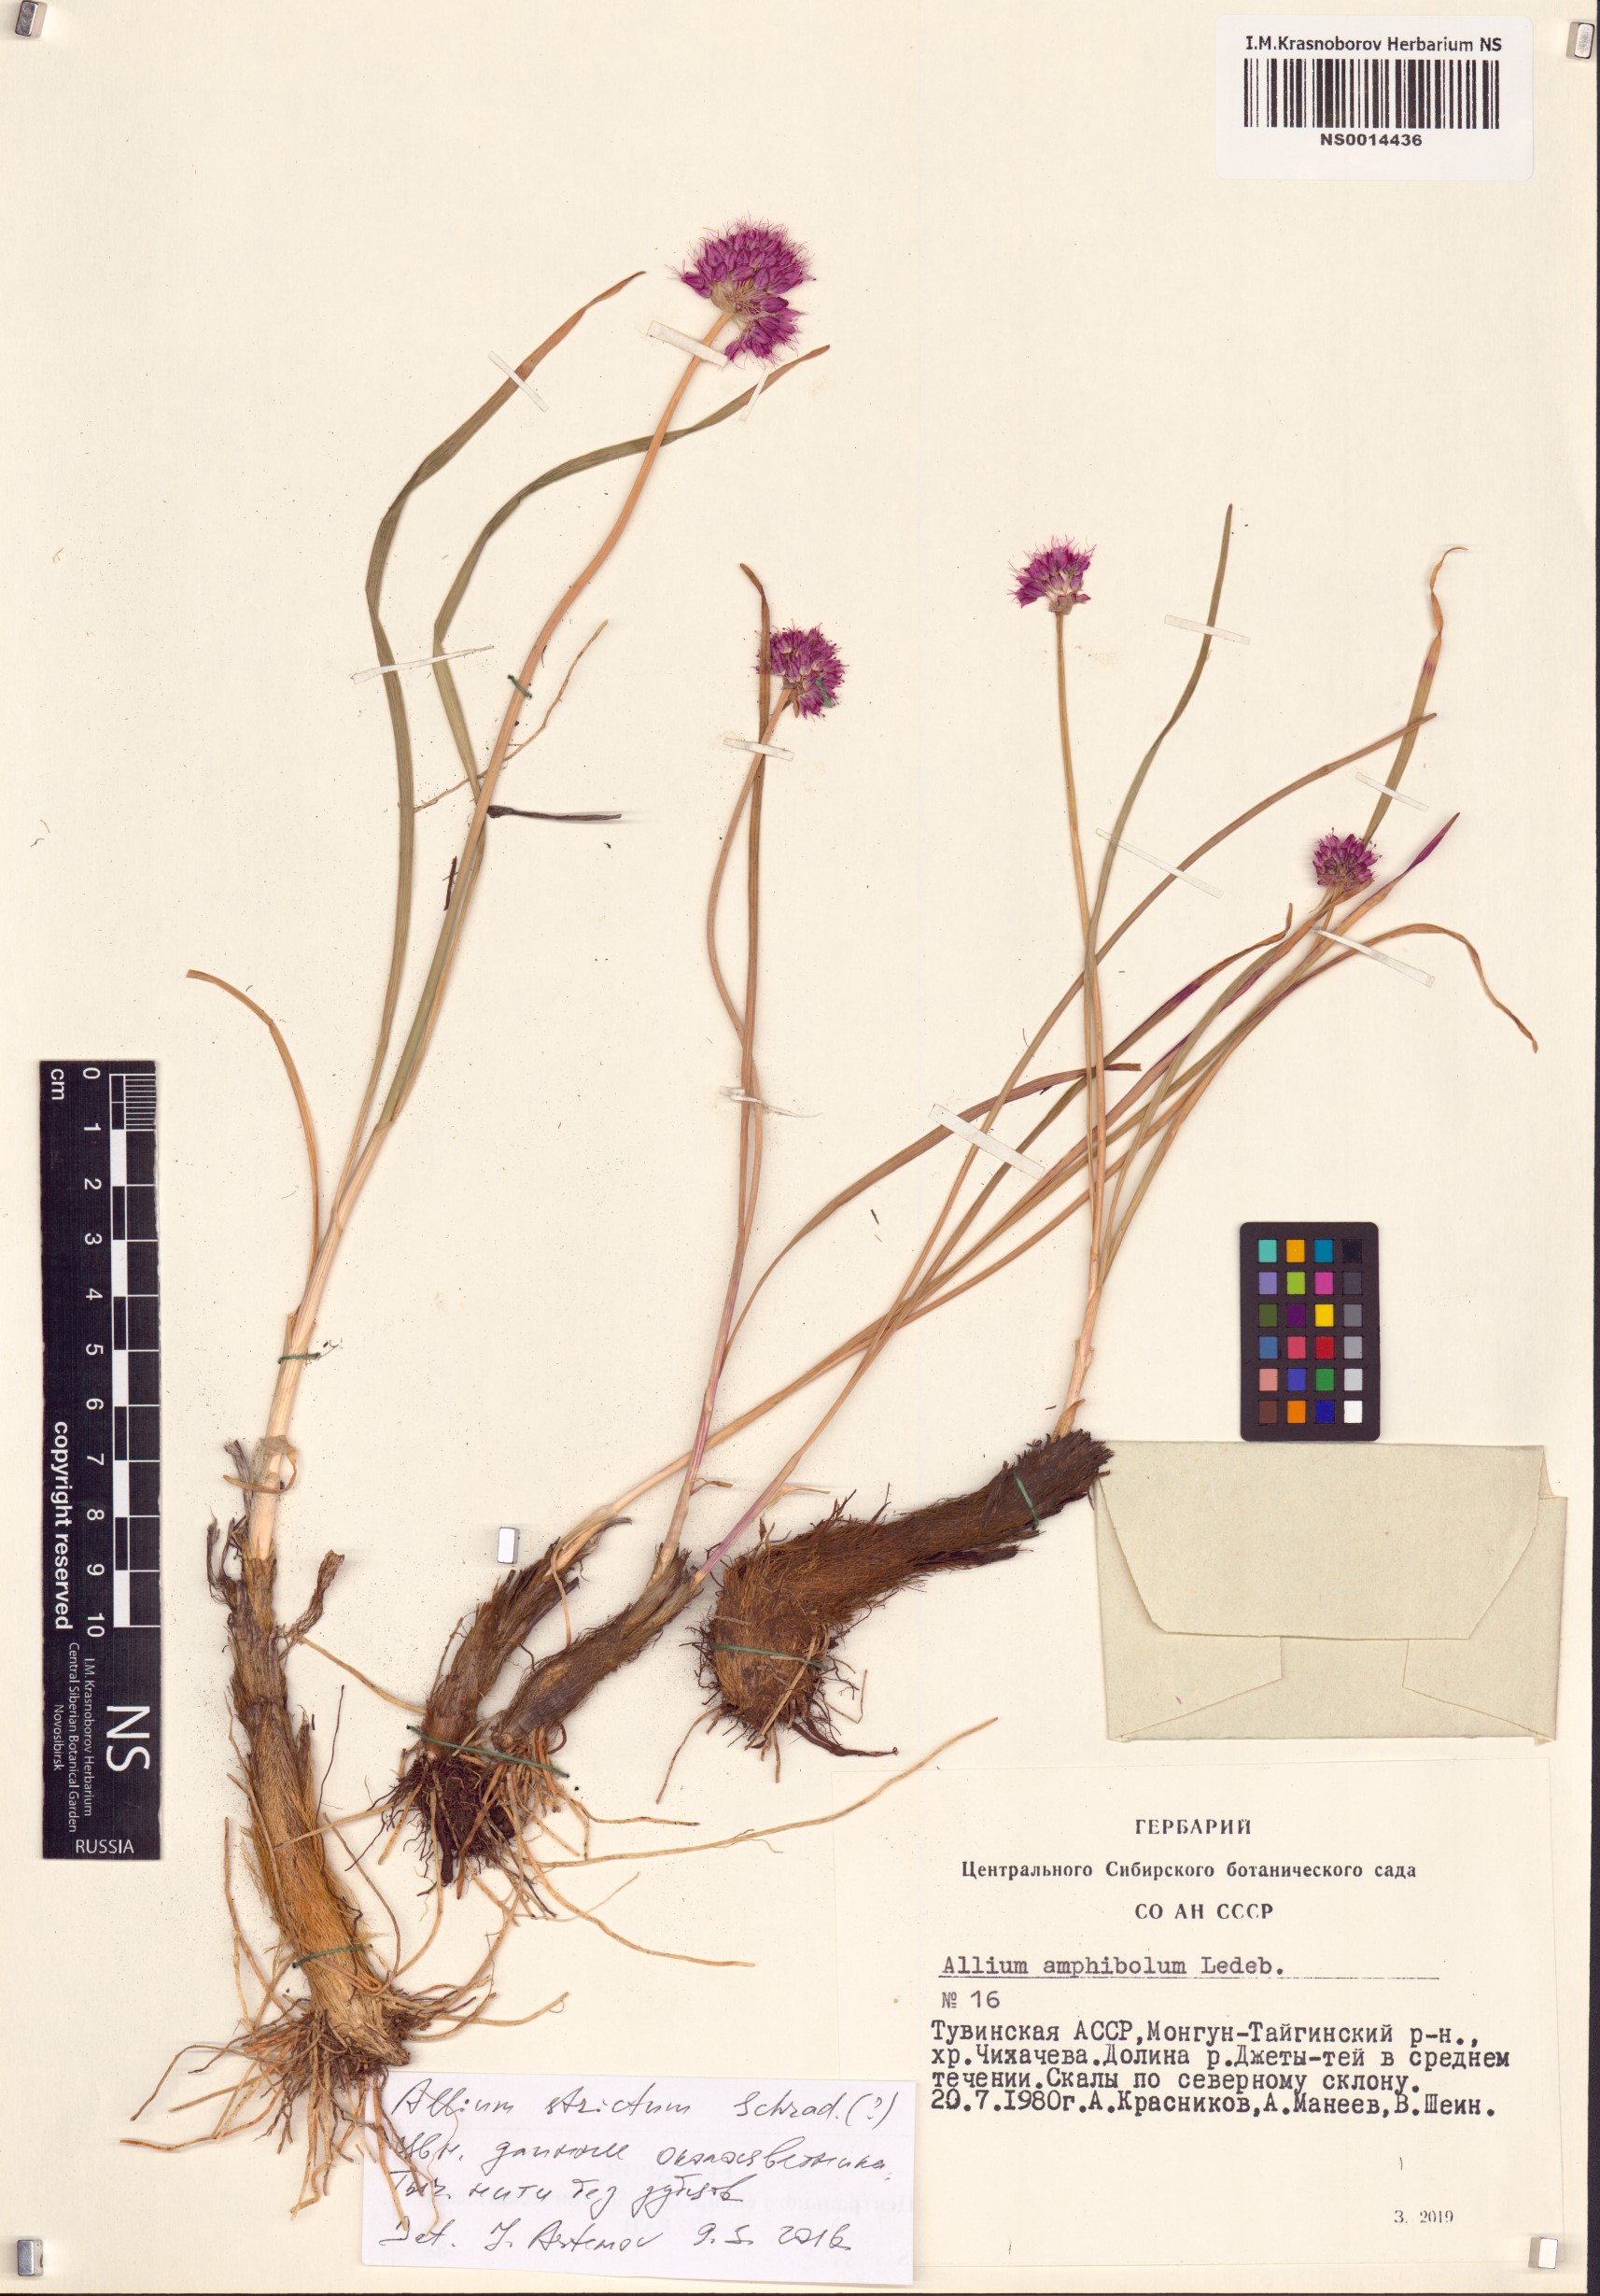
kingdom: Plantae
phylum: Tracheophyta
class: Liliopsida
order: Asparagales
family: Amaryllidaceae
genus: Allium
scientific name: Allium strictum
